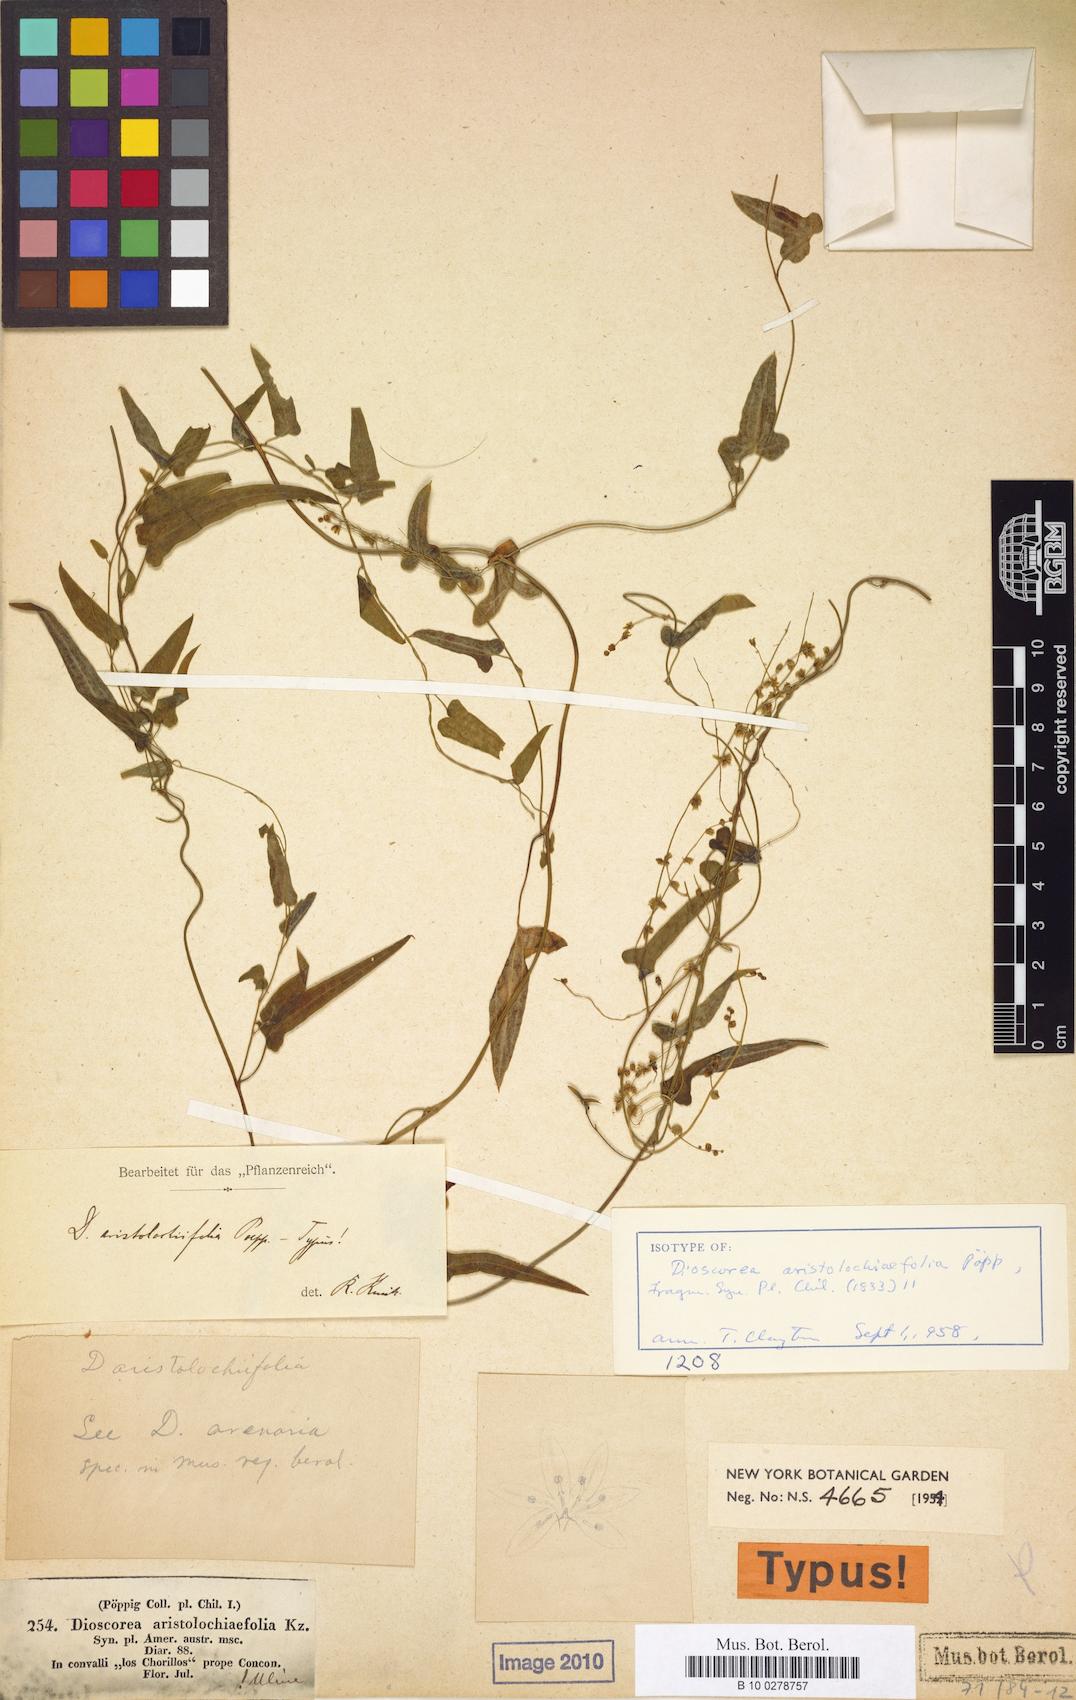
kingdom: Plantae
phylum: Tracheophyta
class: Liliopsida
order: Dioscoreales
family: Dioscoreaceae
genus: Dioscorea
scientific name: Dioscorea aristolochiifolia
